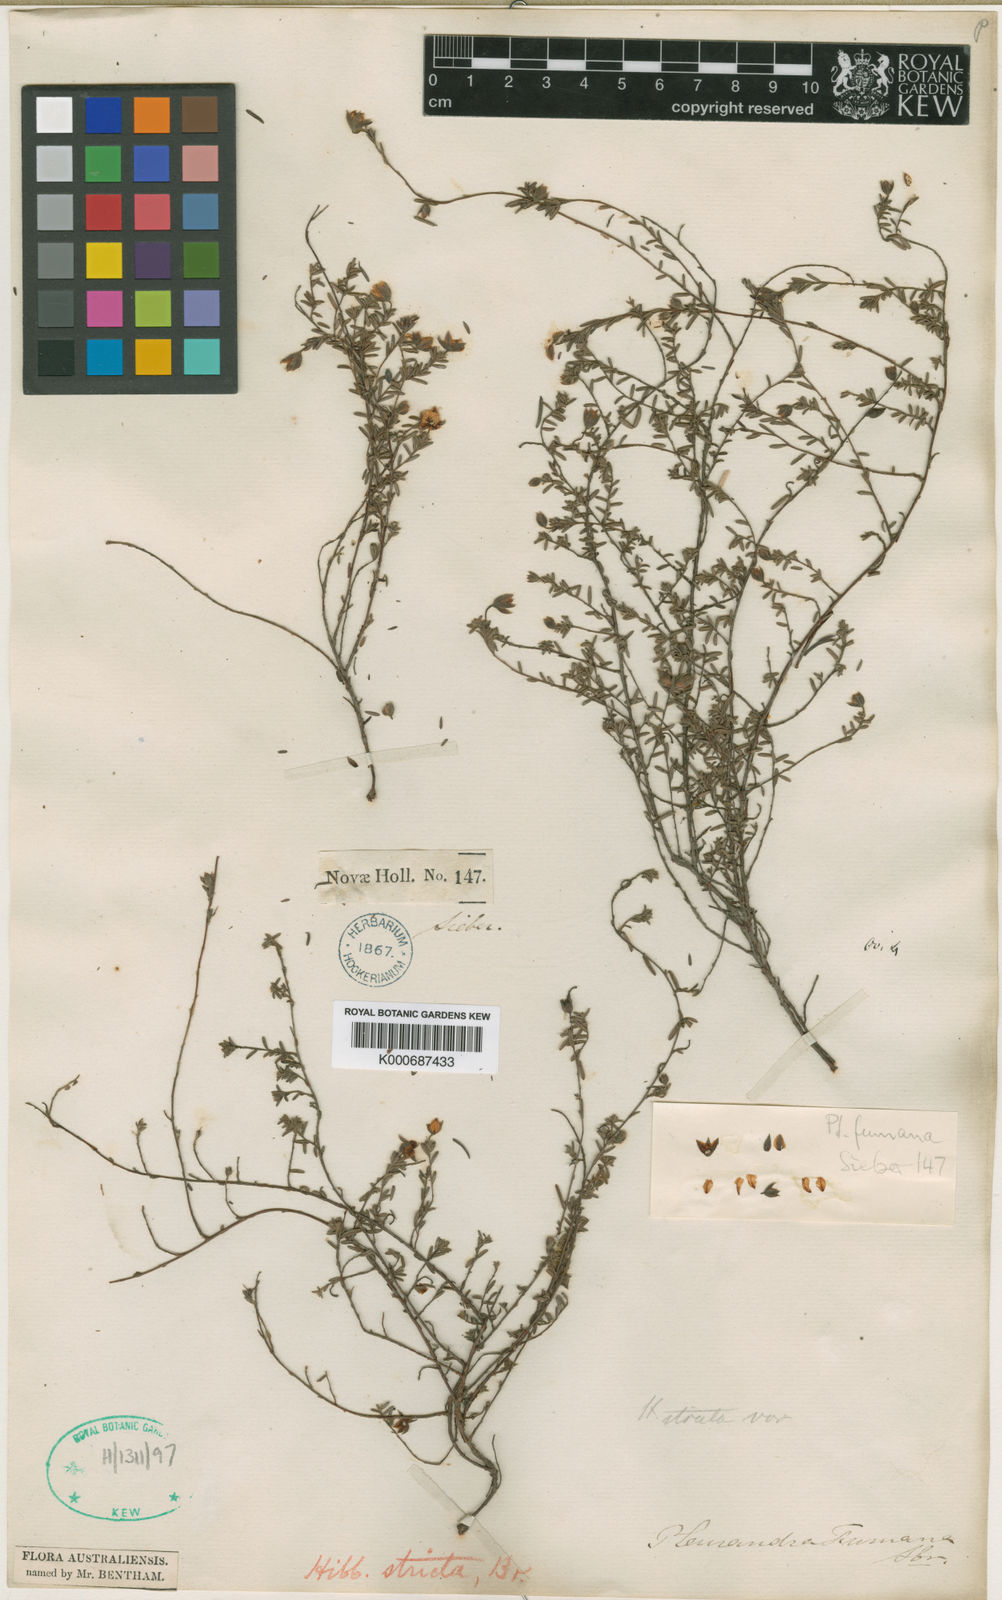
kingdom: Plantae
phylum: Tracheophyta
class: Magnoliopsida
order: Dilleniales
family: Dilleniaceae
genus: Hibbertia
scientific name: Hibbertia stricta
